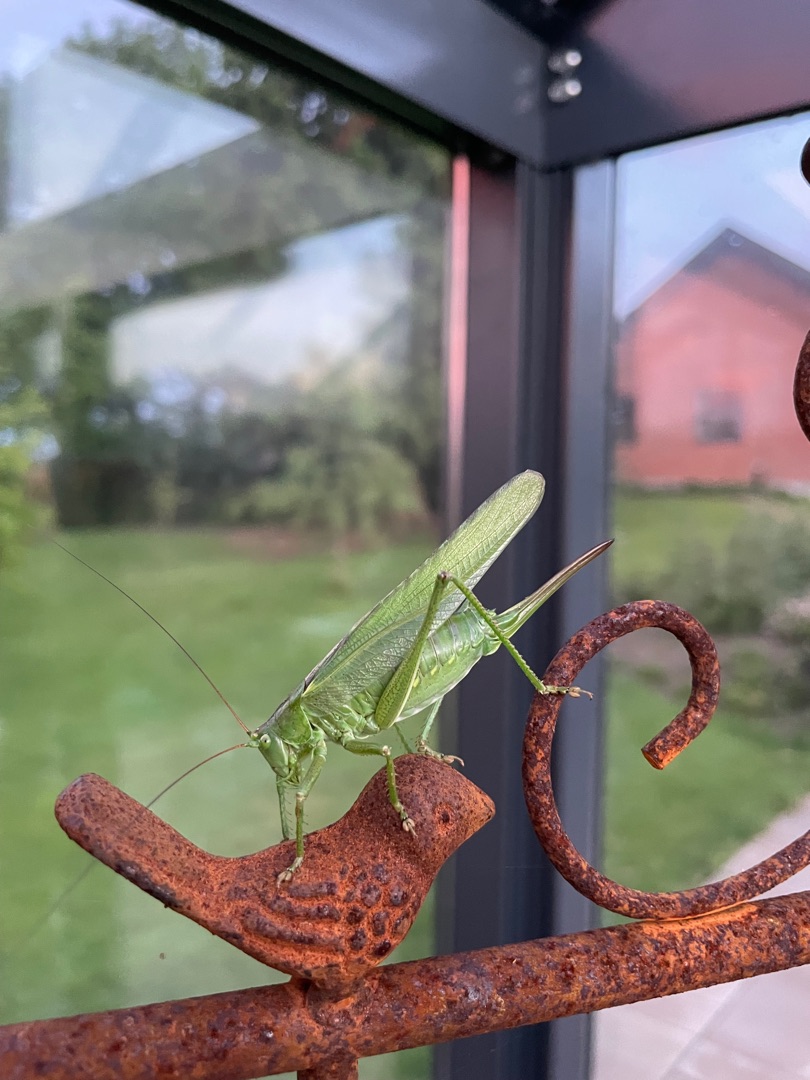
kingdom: Animalia
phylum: Arthropoda
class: Insecta
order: Orthoptera
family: Tettigoniidae
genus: Tettigonia
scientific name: Tettigonia viridissima
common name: Stor grøn løvgræshoppe
